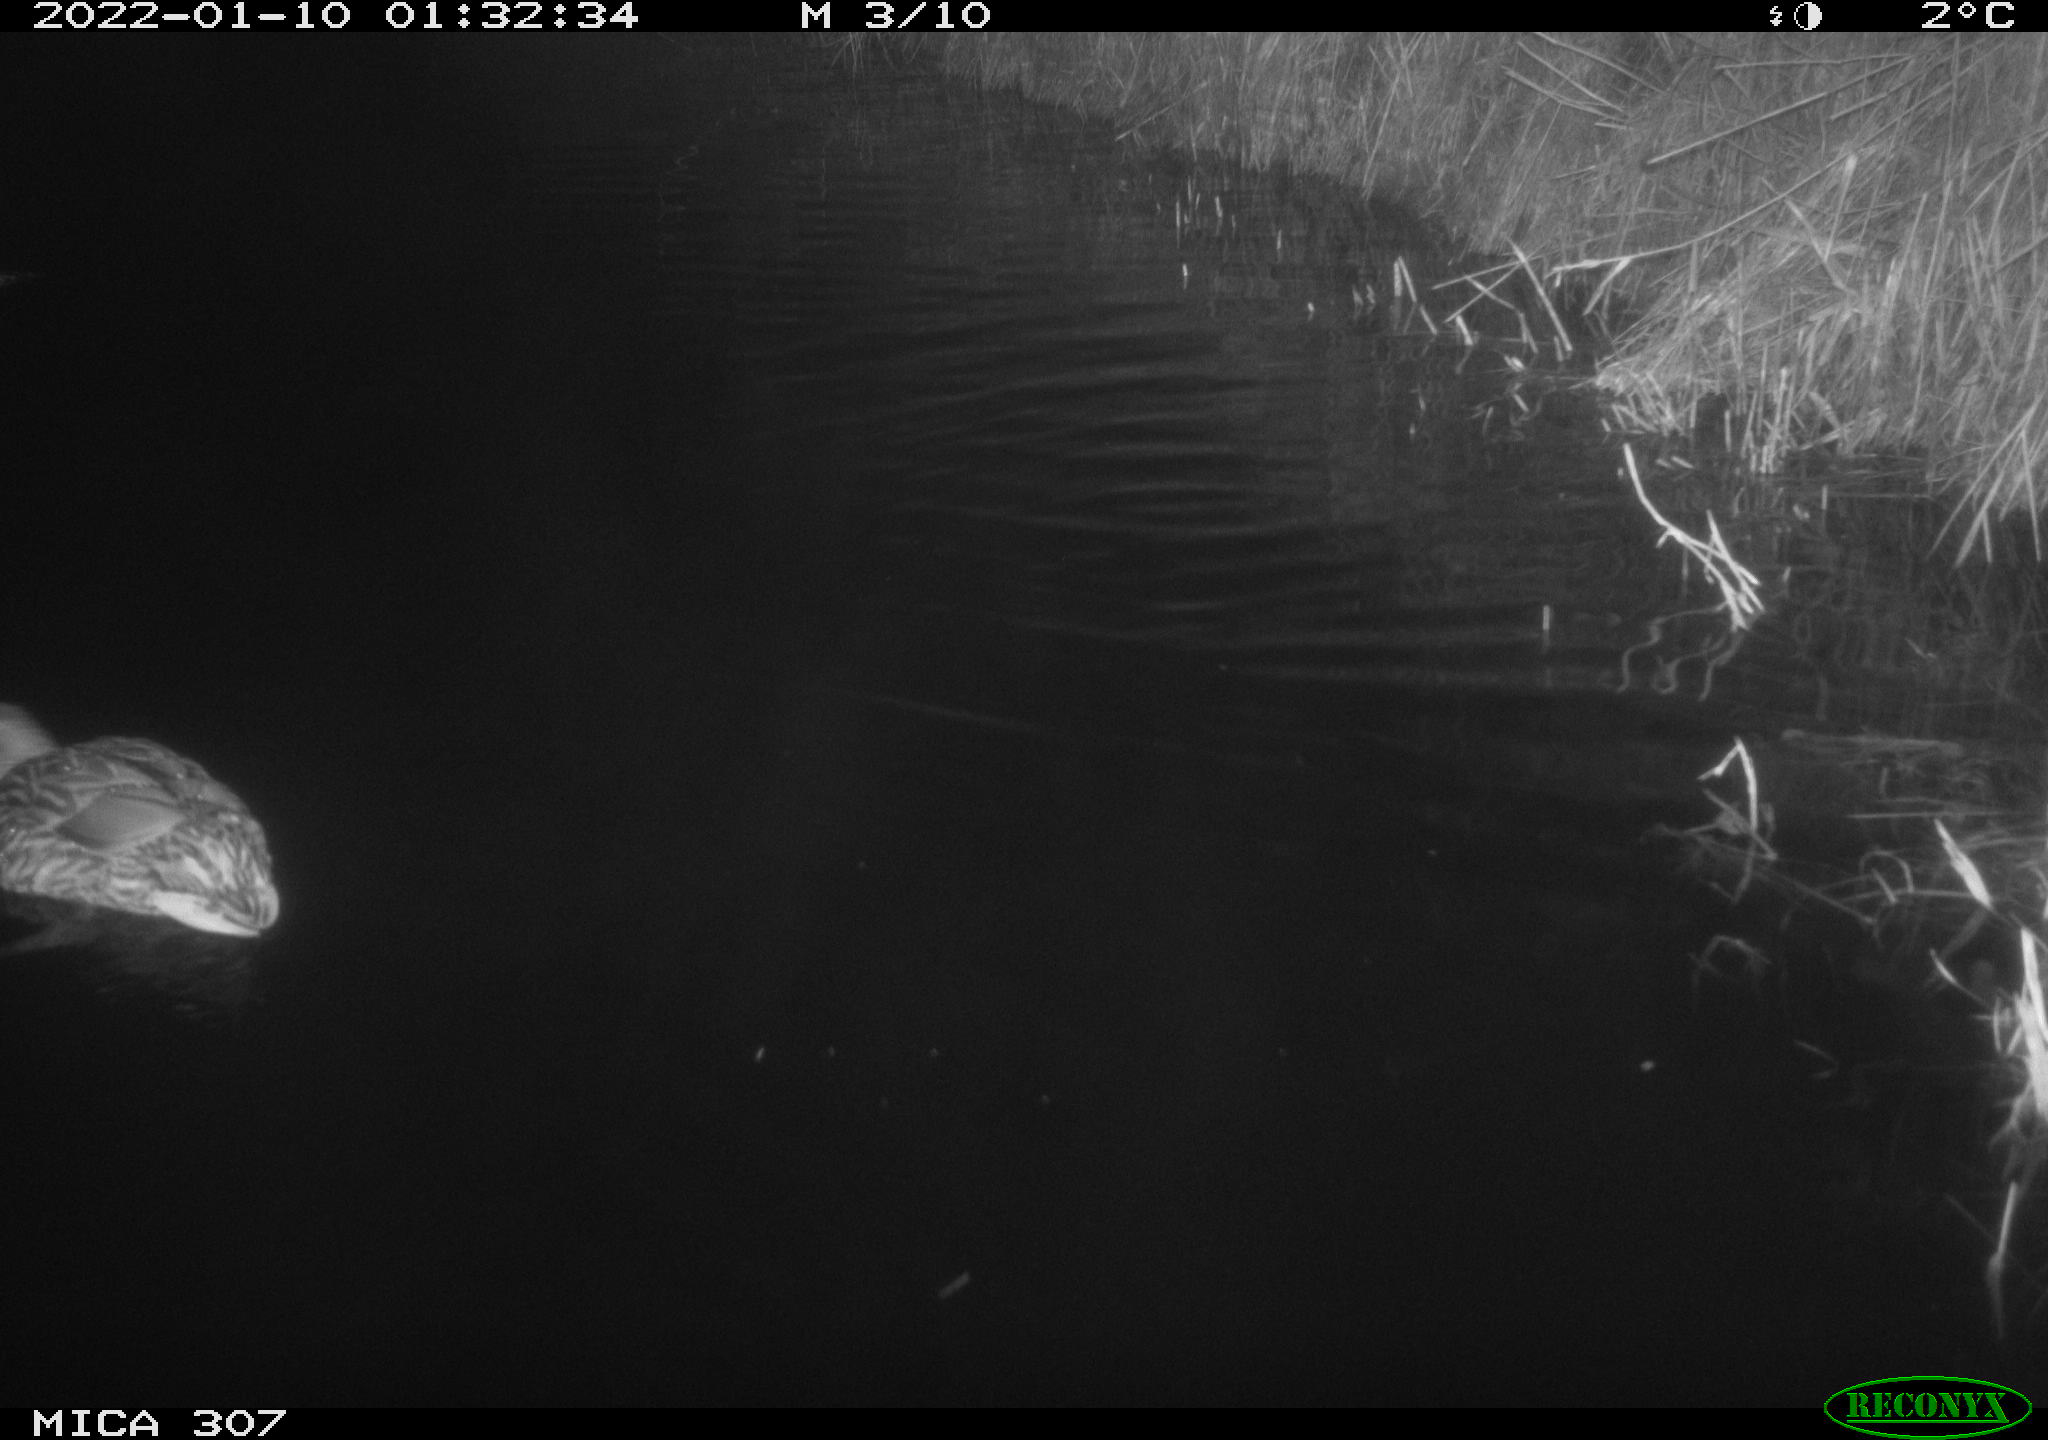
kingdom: Animalia
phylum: Chordata
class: Aves
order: Anseriformes
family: Anatidae
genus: Anas
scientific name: Anas
